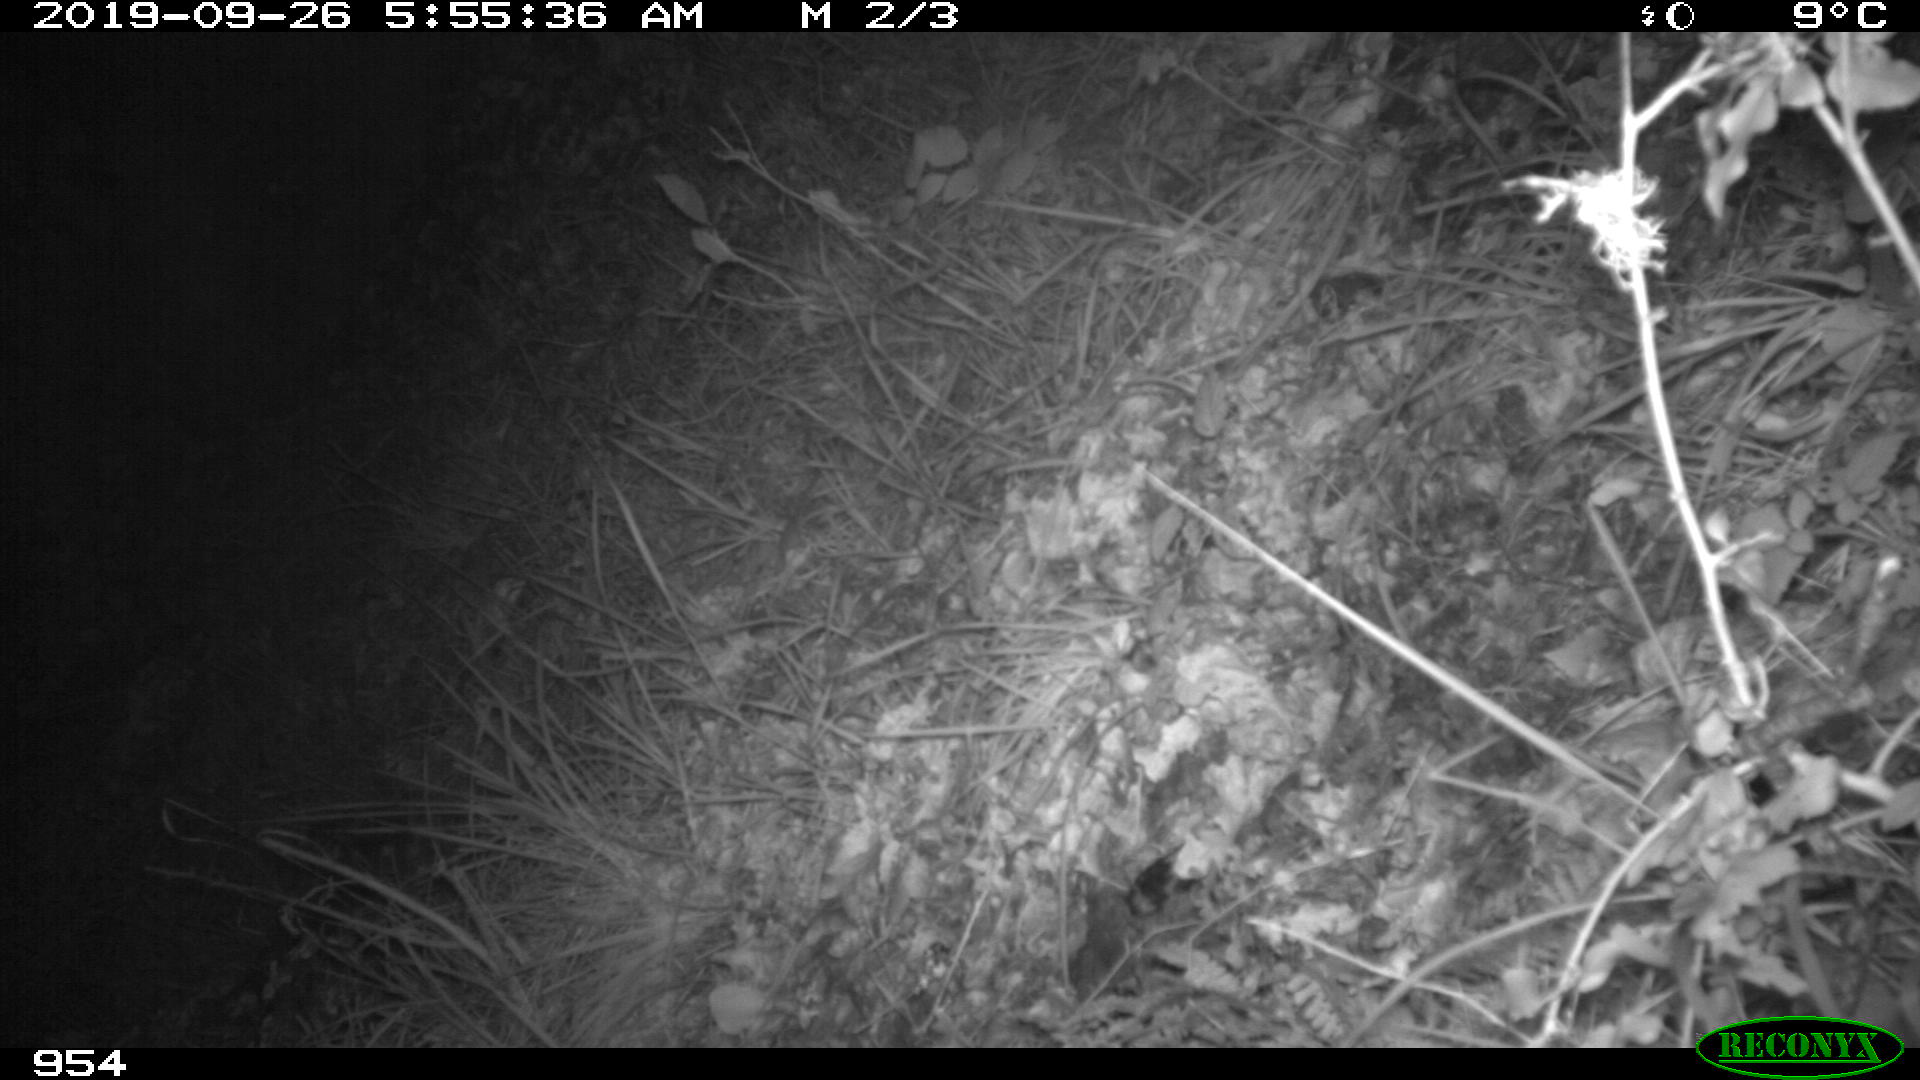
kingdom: Animalia
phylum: Chordata
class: Mammalia
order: Artiodactyla
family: Suidae
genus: Sus
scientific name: Sus scrofa
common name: Wild boar
